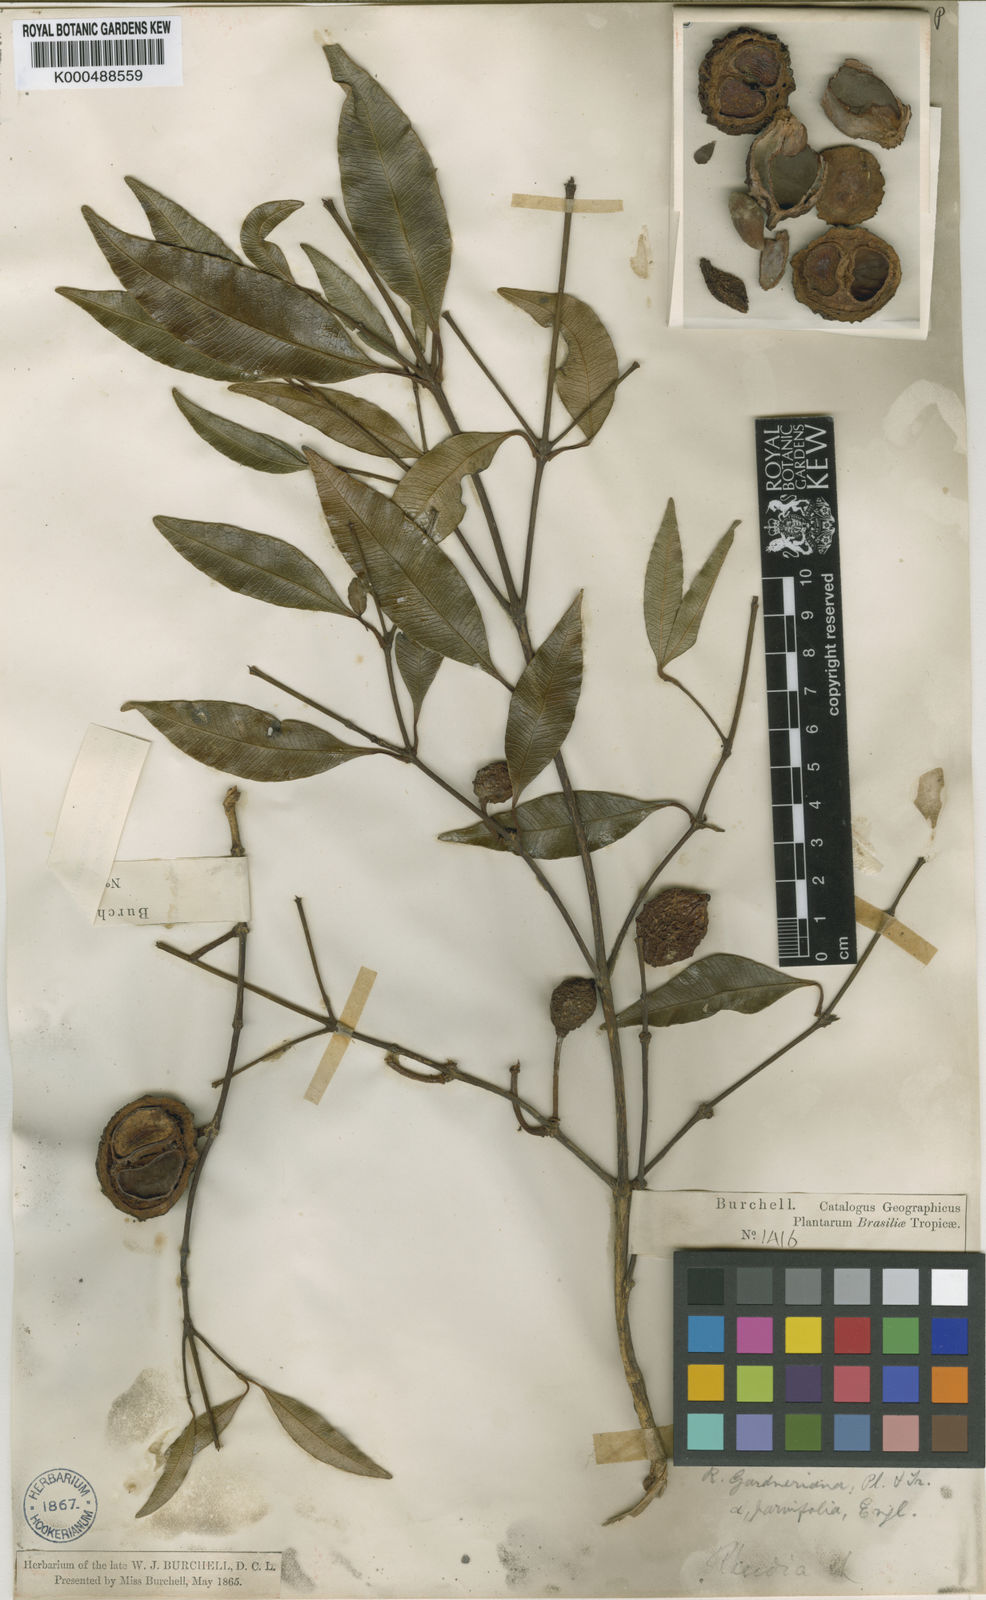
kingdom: Plantae
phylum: Tracheophyta
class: Magnoliopsida
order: Malpighiales
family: Clusiaceae
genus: Garcinia
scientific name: Garcinia gardneriana
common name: Achacha
